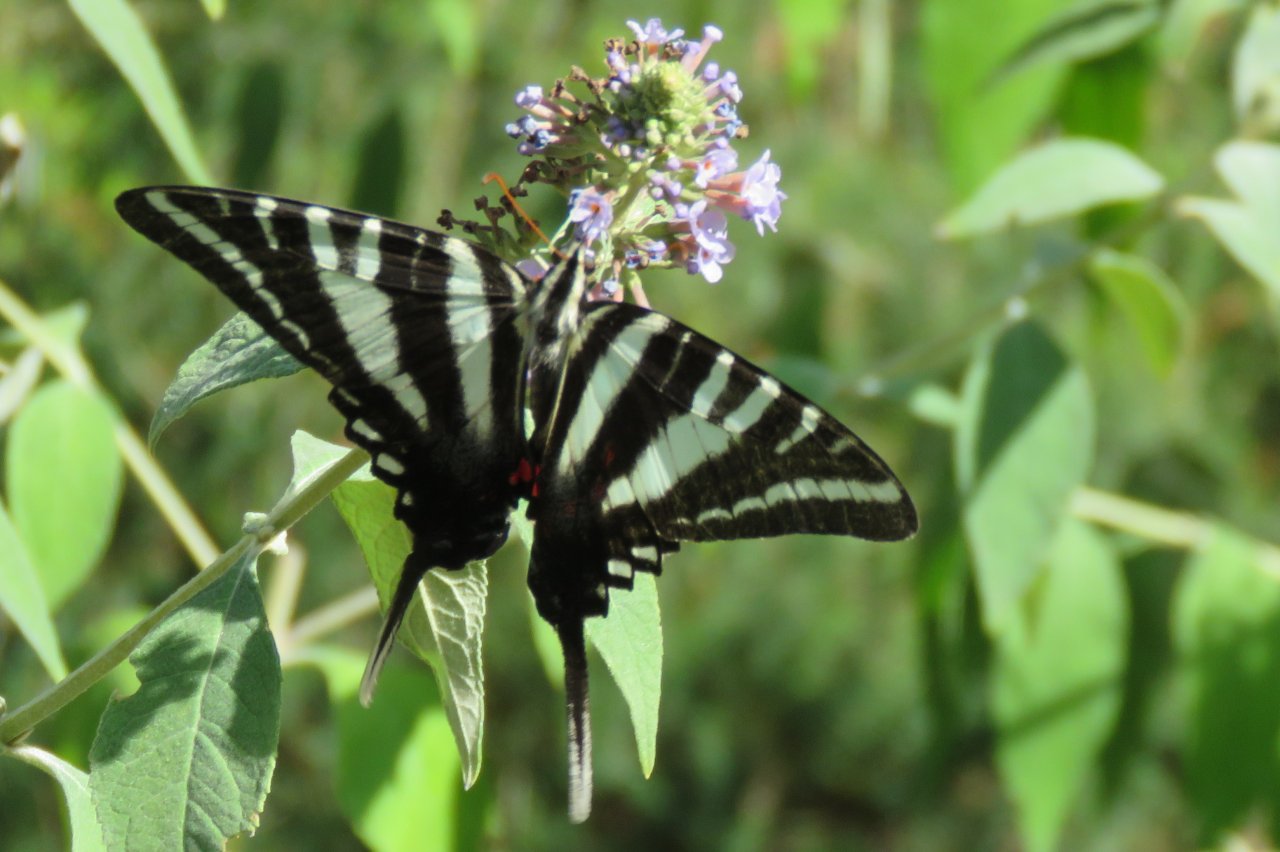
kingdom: Animalia
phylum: Arthropoda
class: Insecta
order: Lepidoptera
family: Papilionidae
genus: Protographium
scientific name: Protographium marcellus
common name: Zebra Swallowtail
